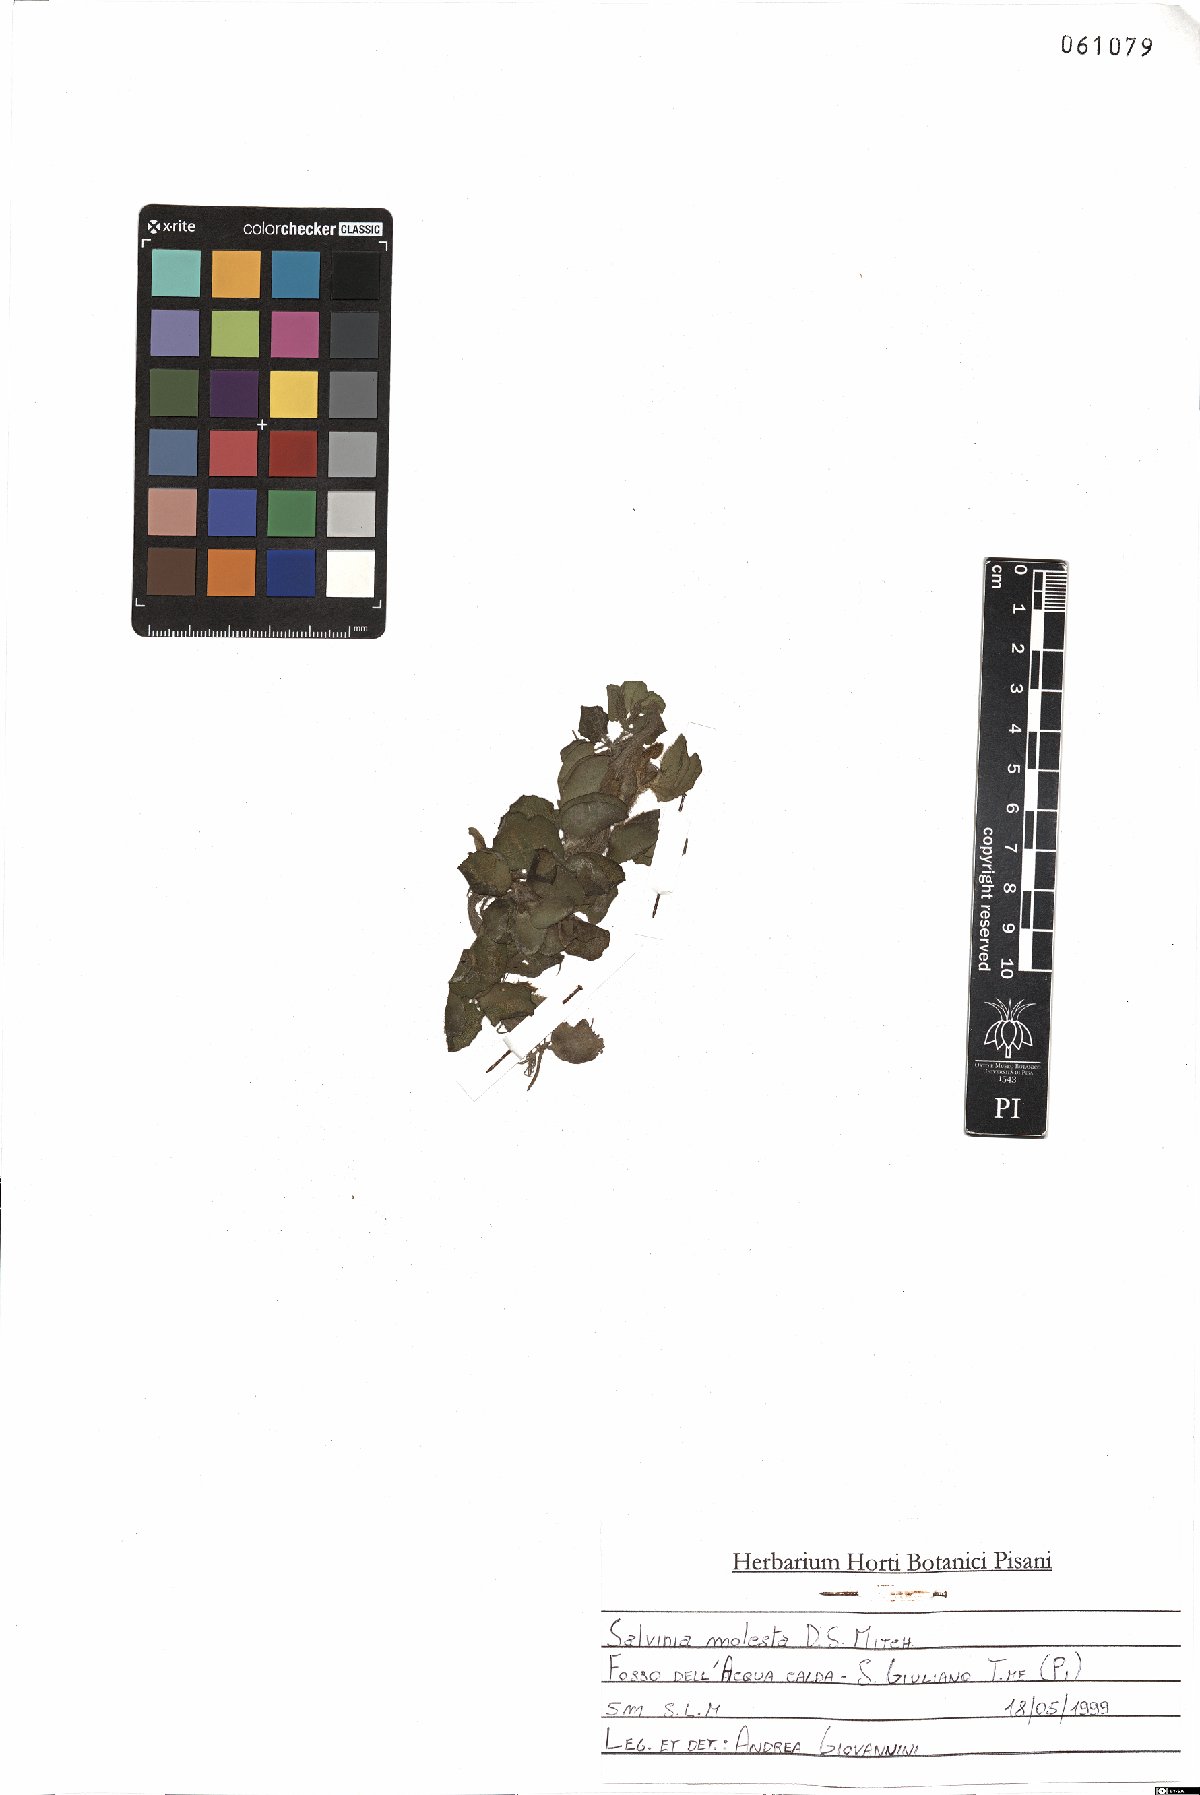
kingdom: Plantae
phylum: Tracheophyta
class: Polypodiopsida
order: Salviniales
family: Salviniaceae
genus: Salvinia
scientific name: Salvinia molesta
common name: Kariba weed
